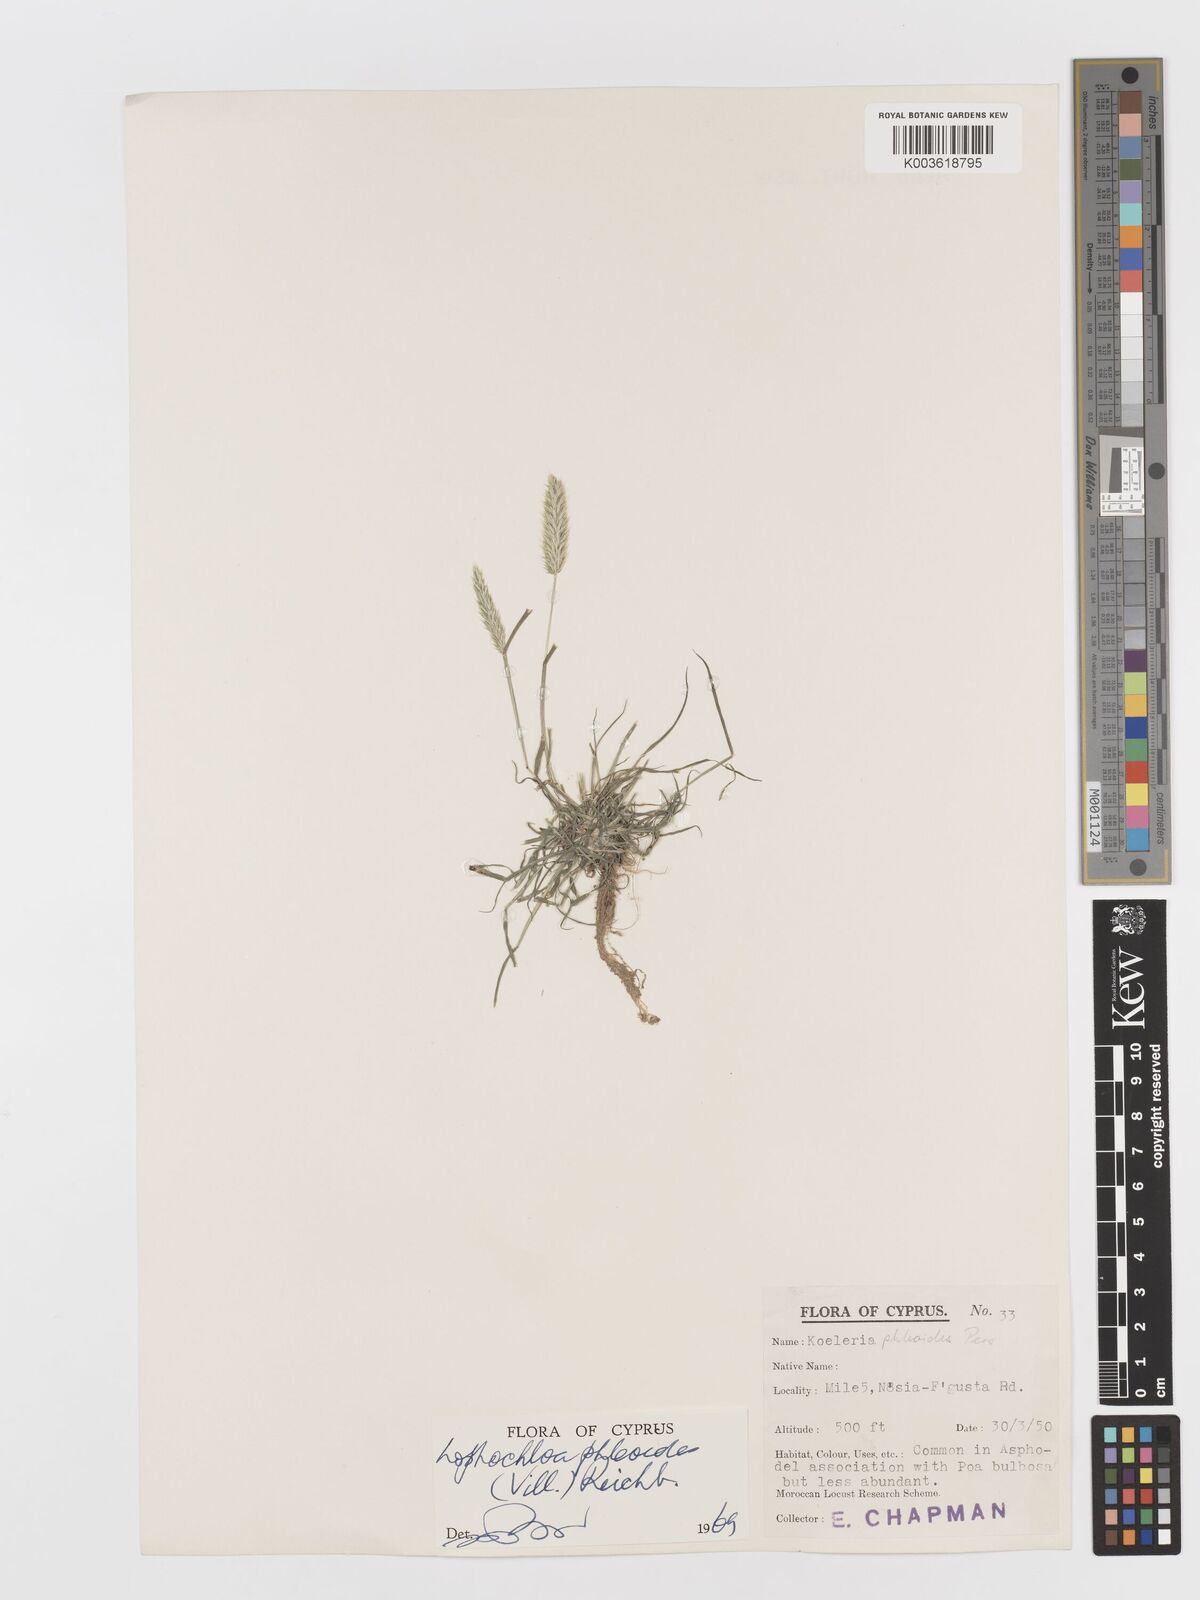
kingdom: Plantae
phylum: Tracheophyta
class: Liliopsida
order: Poales
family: Poaceae
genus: Rostraria
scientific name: Rostraria cristata
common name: Mediterranean hair-grass
